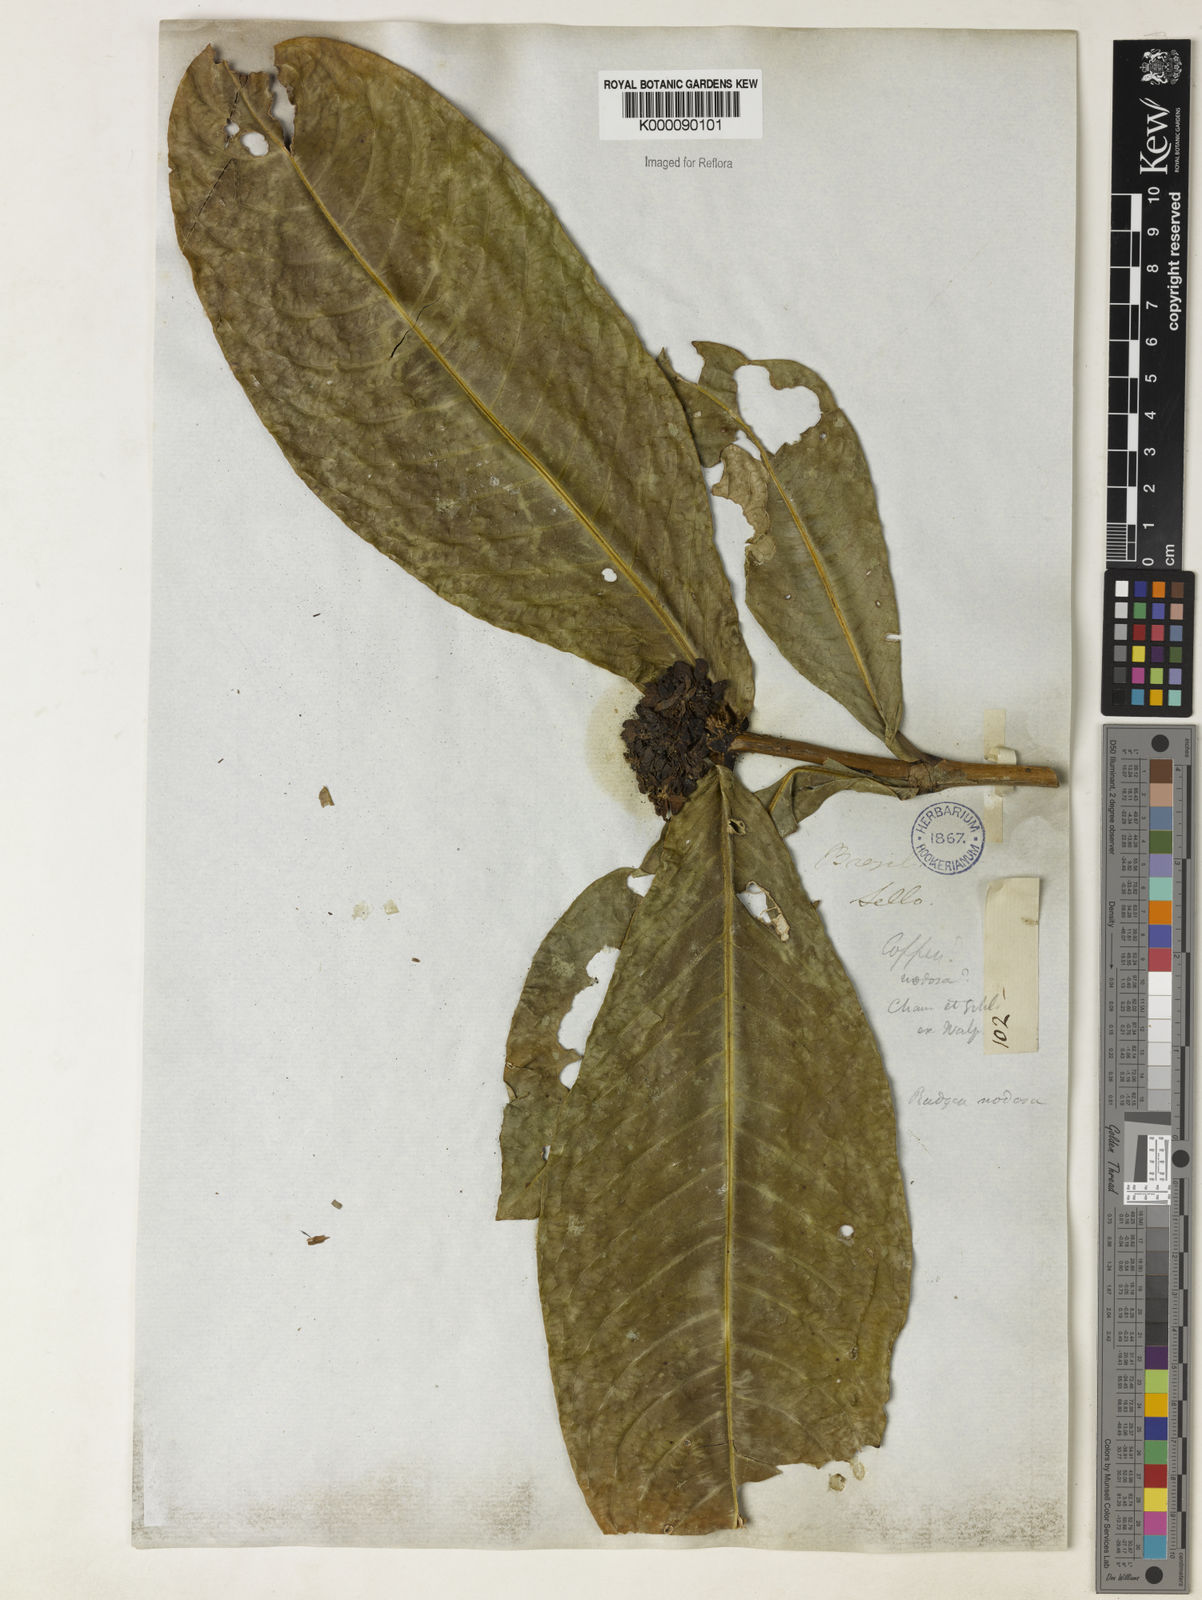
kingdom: Plantae
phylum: Tracheophyta
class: Magnoliopsida
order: Gentianales
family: Rubiaceae
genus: Rudgea
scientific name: Rudgea macrophylla
